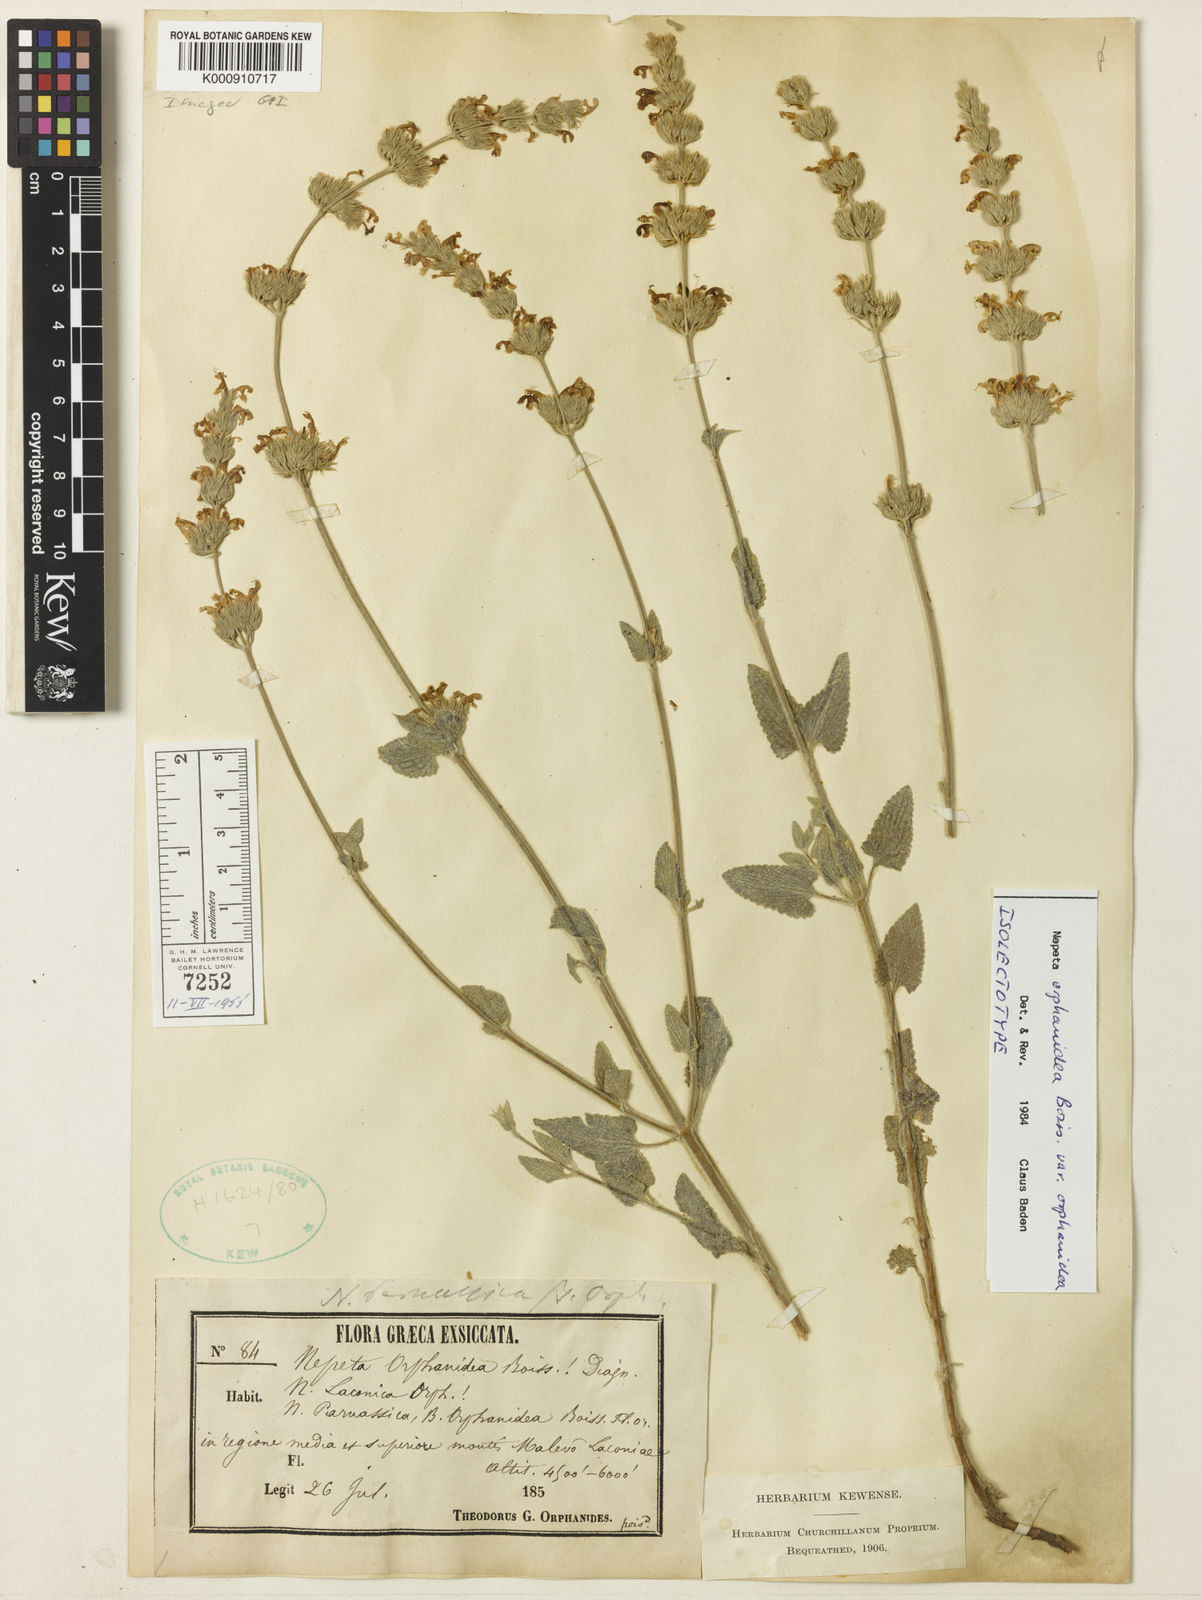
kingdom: Plantae
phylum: Tracheophyta
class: Magnoliopsida
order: Lamiales
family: Lamiaceae
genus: Nepeta
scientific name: Nepeta orphanidea
